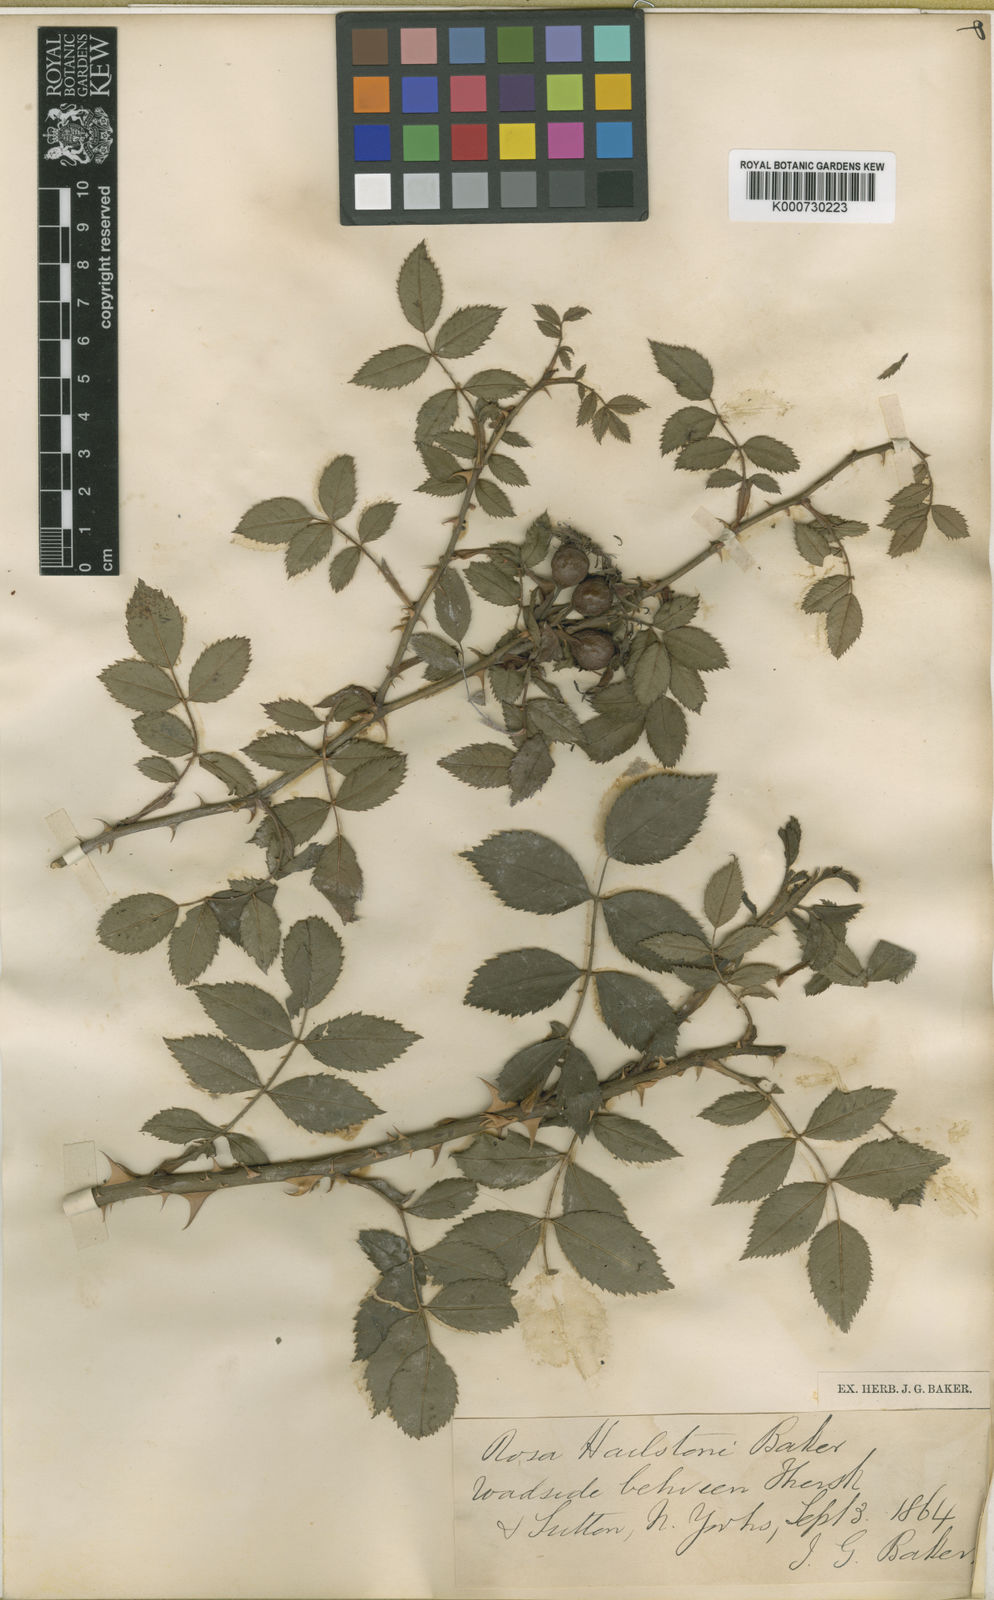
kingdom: Plantae
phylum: Tracheophyta
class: Magnoliopsida
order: Rosales
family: Rosaceae
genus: Rosa
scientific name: Rosa canina
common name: Dog rose
